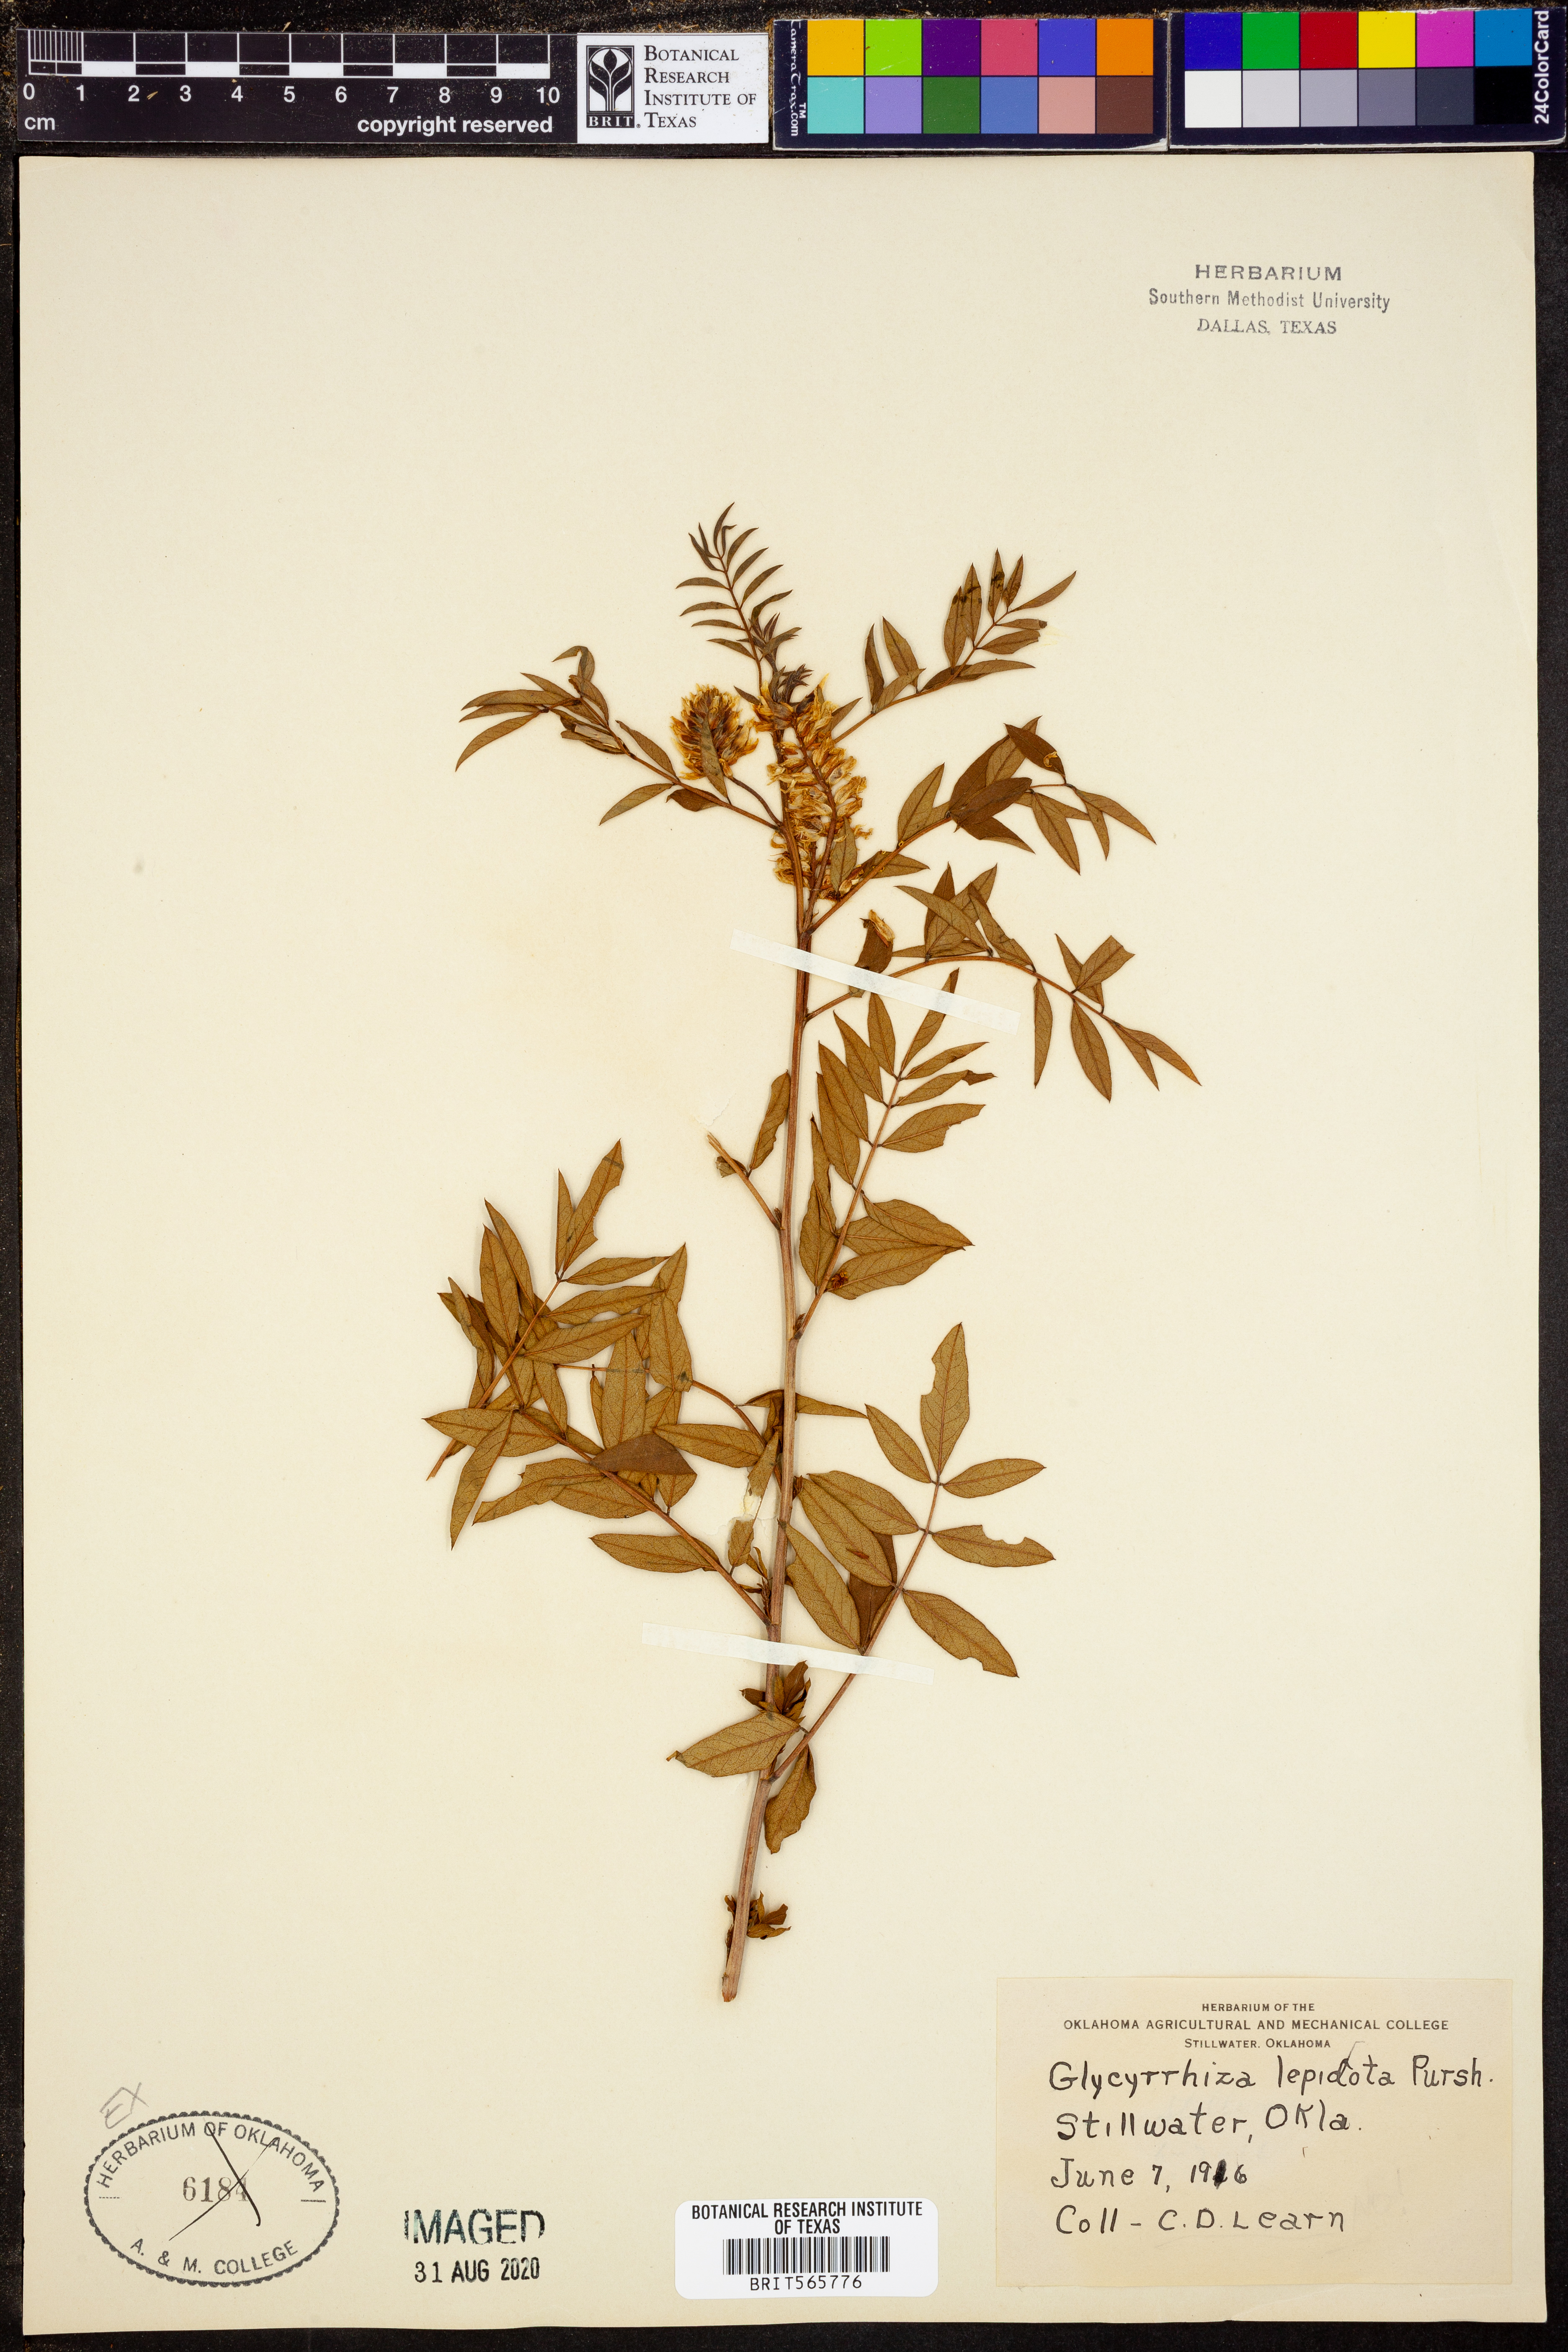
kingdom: Plantae
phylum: Tracheophyta
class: Magnoliopsida
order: Fabales
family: Fabaceae
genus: Glycyrrhiza
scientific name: Glycyrrhiza lepidota
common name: American liquorice
